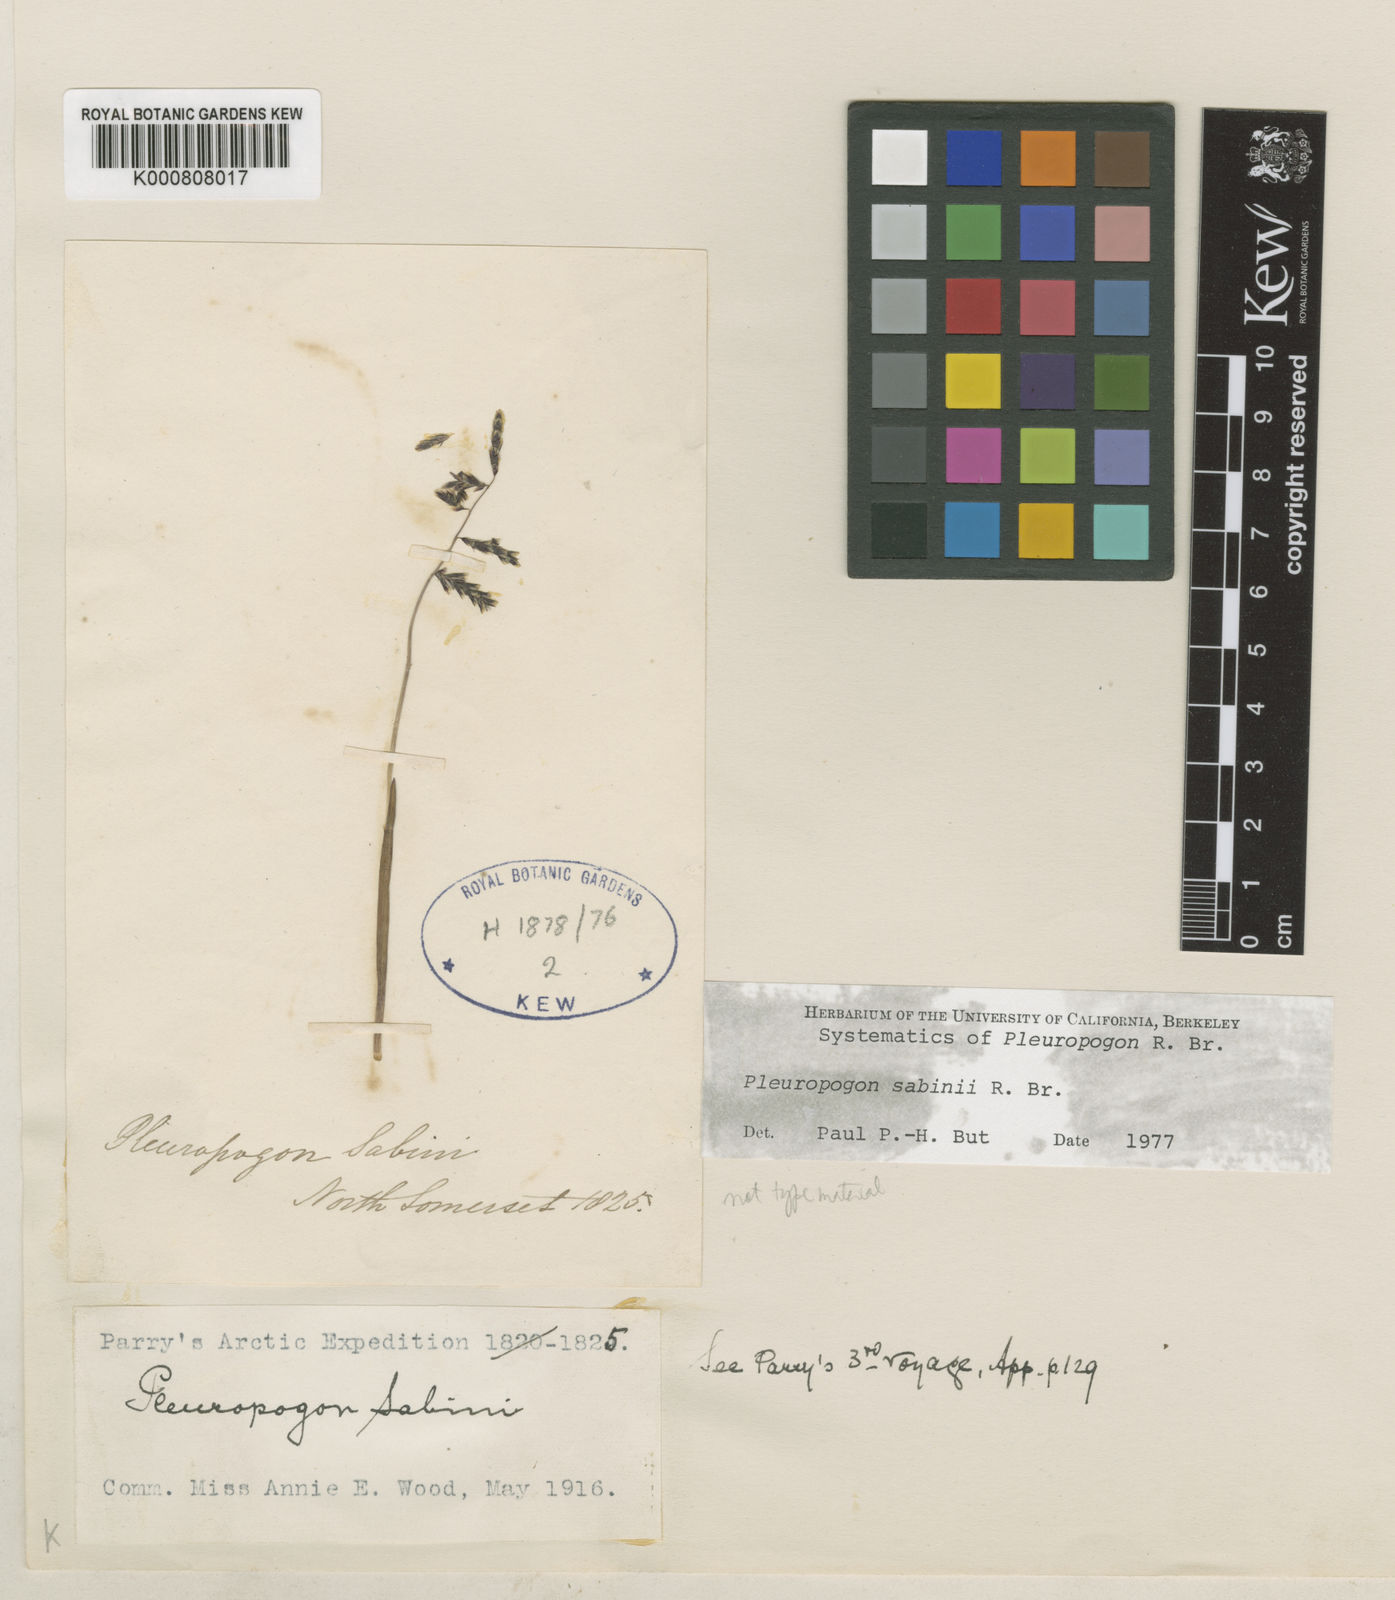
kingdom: Plantae
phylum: Tracheophyta
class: Liliopsida
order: Poales
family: Poaceae
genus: Pleuropogon
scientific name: Pleuropogon sabinei
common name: Sabine's false semaphoregrass
